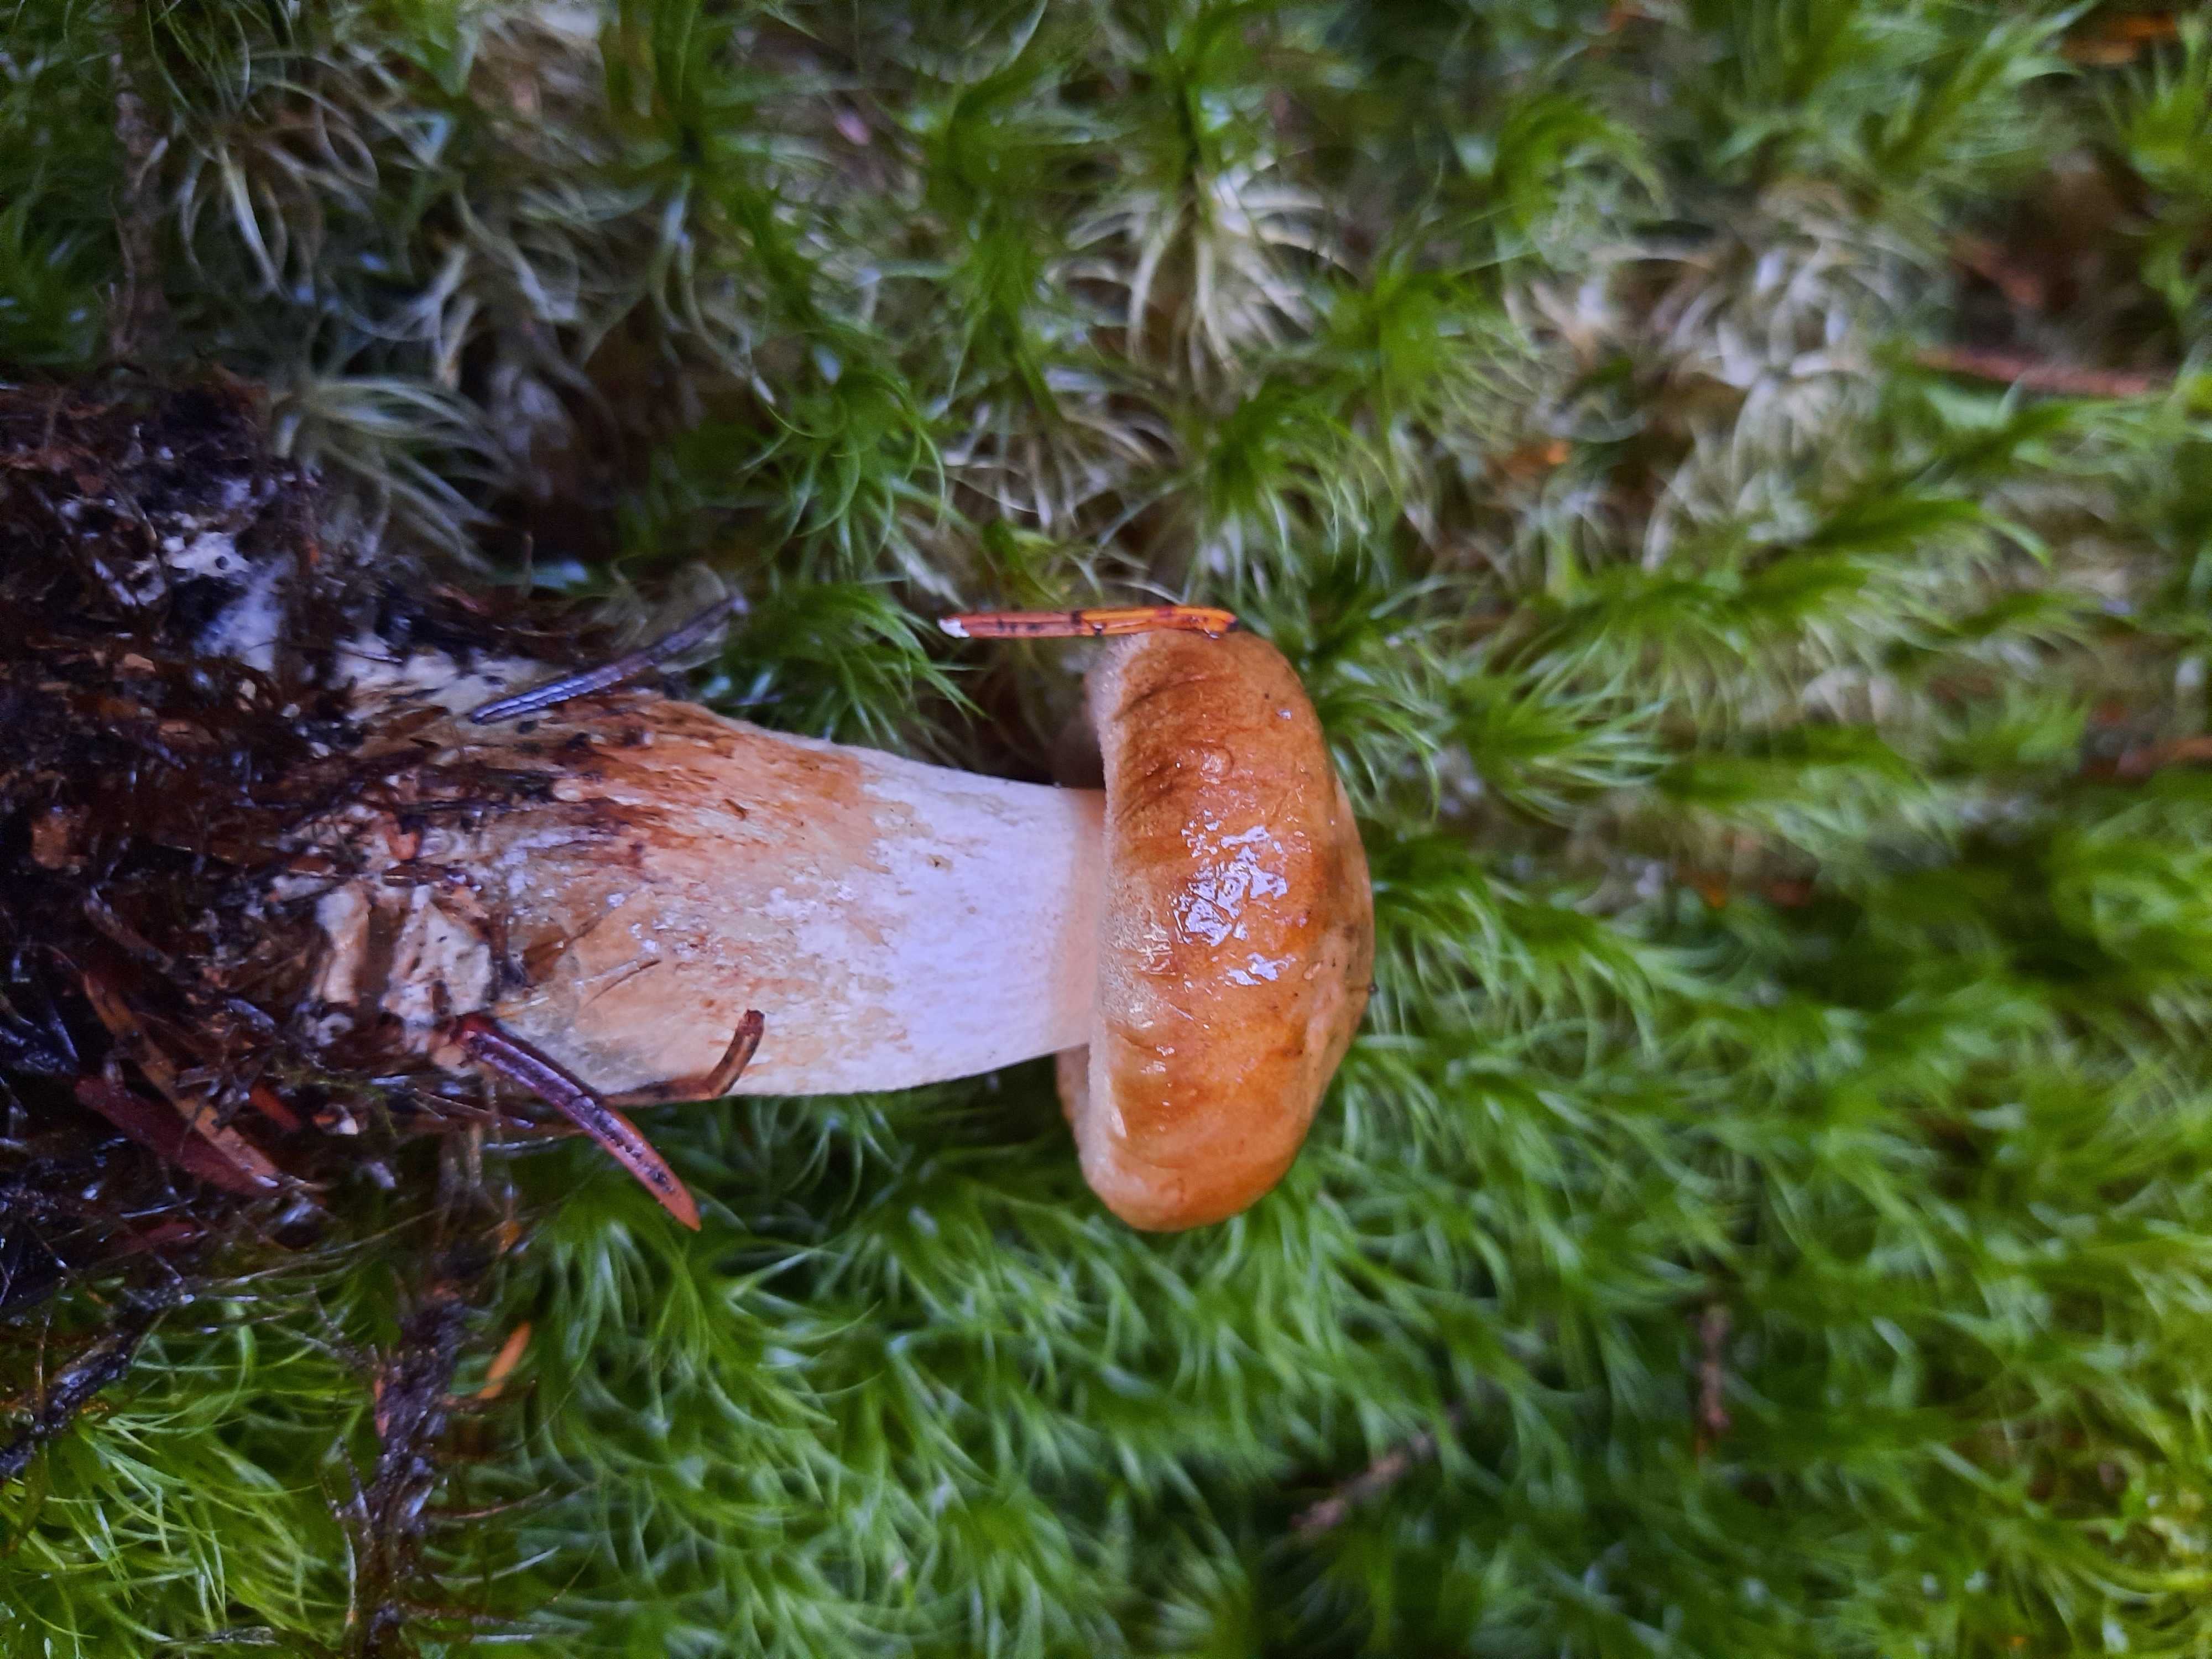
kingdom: Fungi
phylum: Basidiomycota
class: Agaricomycetes
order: Boletales
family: Paxillaceae
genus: Paxillus
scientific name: Paxillus involutus
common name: almindelig netbladhat
